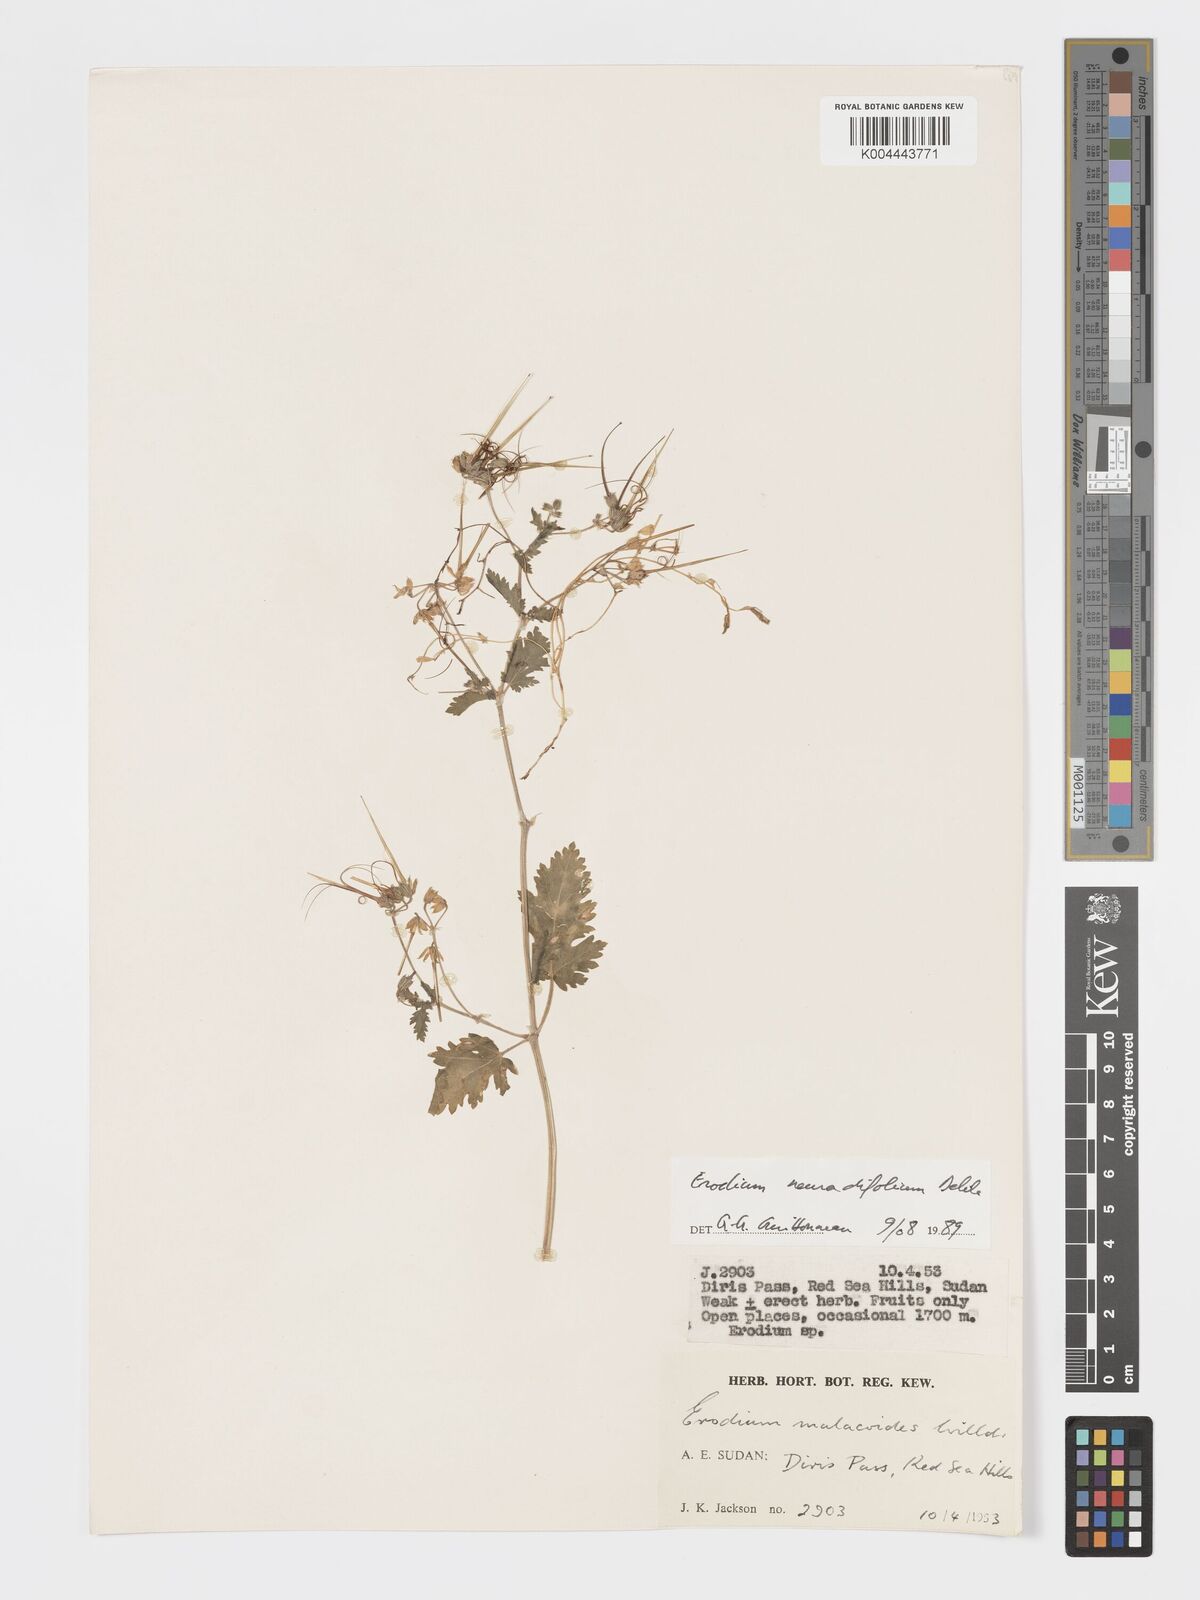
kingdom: Plantae
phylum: Tracheophyta
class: Magnoliopsida
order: Geraniales
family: Geraniaceae
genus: Erodium
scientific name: Erodium neuradifolium
